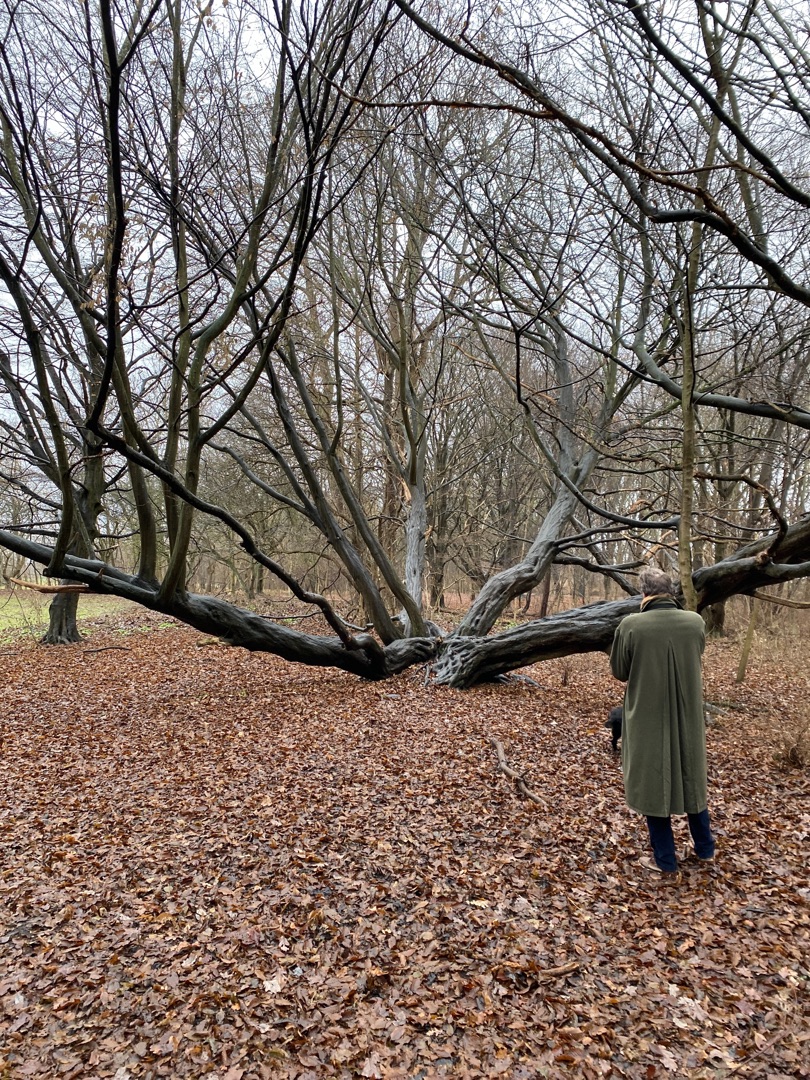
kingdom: Plantae
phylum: Tracheophyta
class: Magnoliopsida
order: Fagales
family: Fagaceae
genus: Fagus
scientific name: Fagus sylvatica
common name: Bøg
